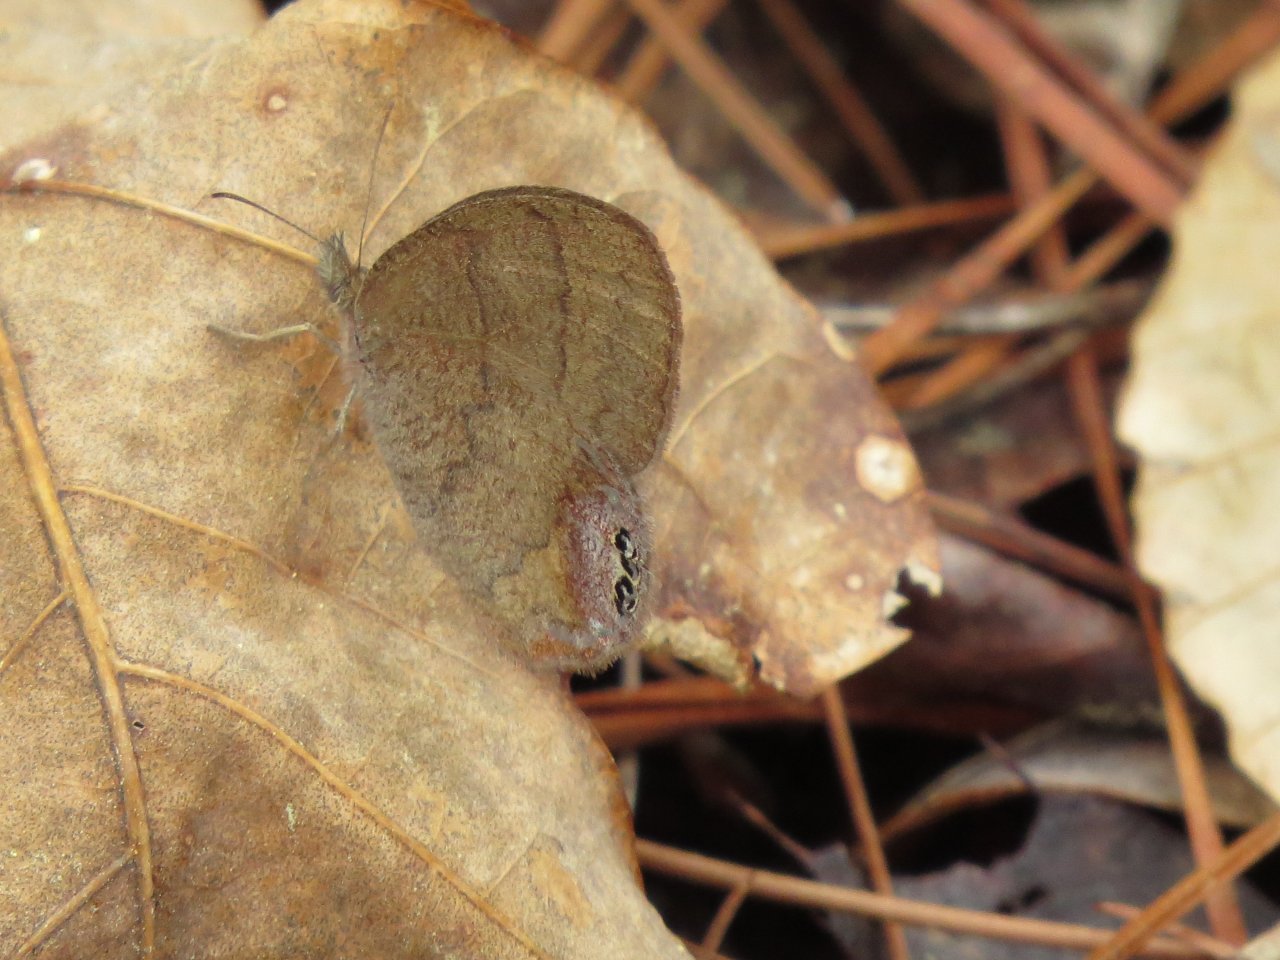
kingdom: Animalia
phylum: Arthropoda
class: Insecta
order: Lepidoptera
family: Nymphalidae
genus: Euptychia
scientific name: Euptychia cornelius
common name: Gemmed Satyr
